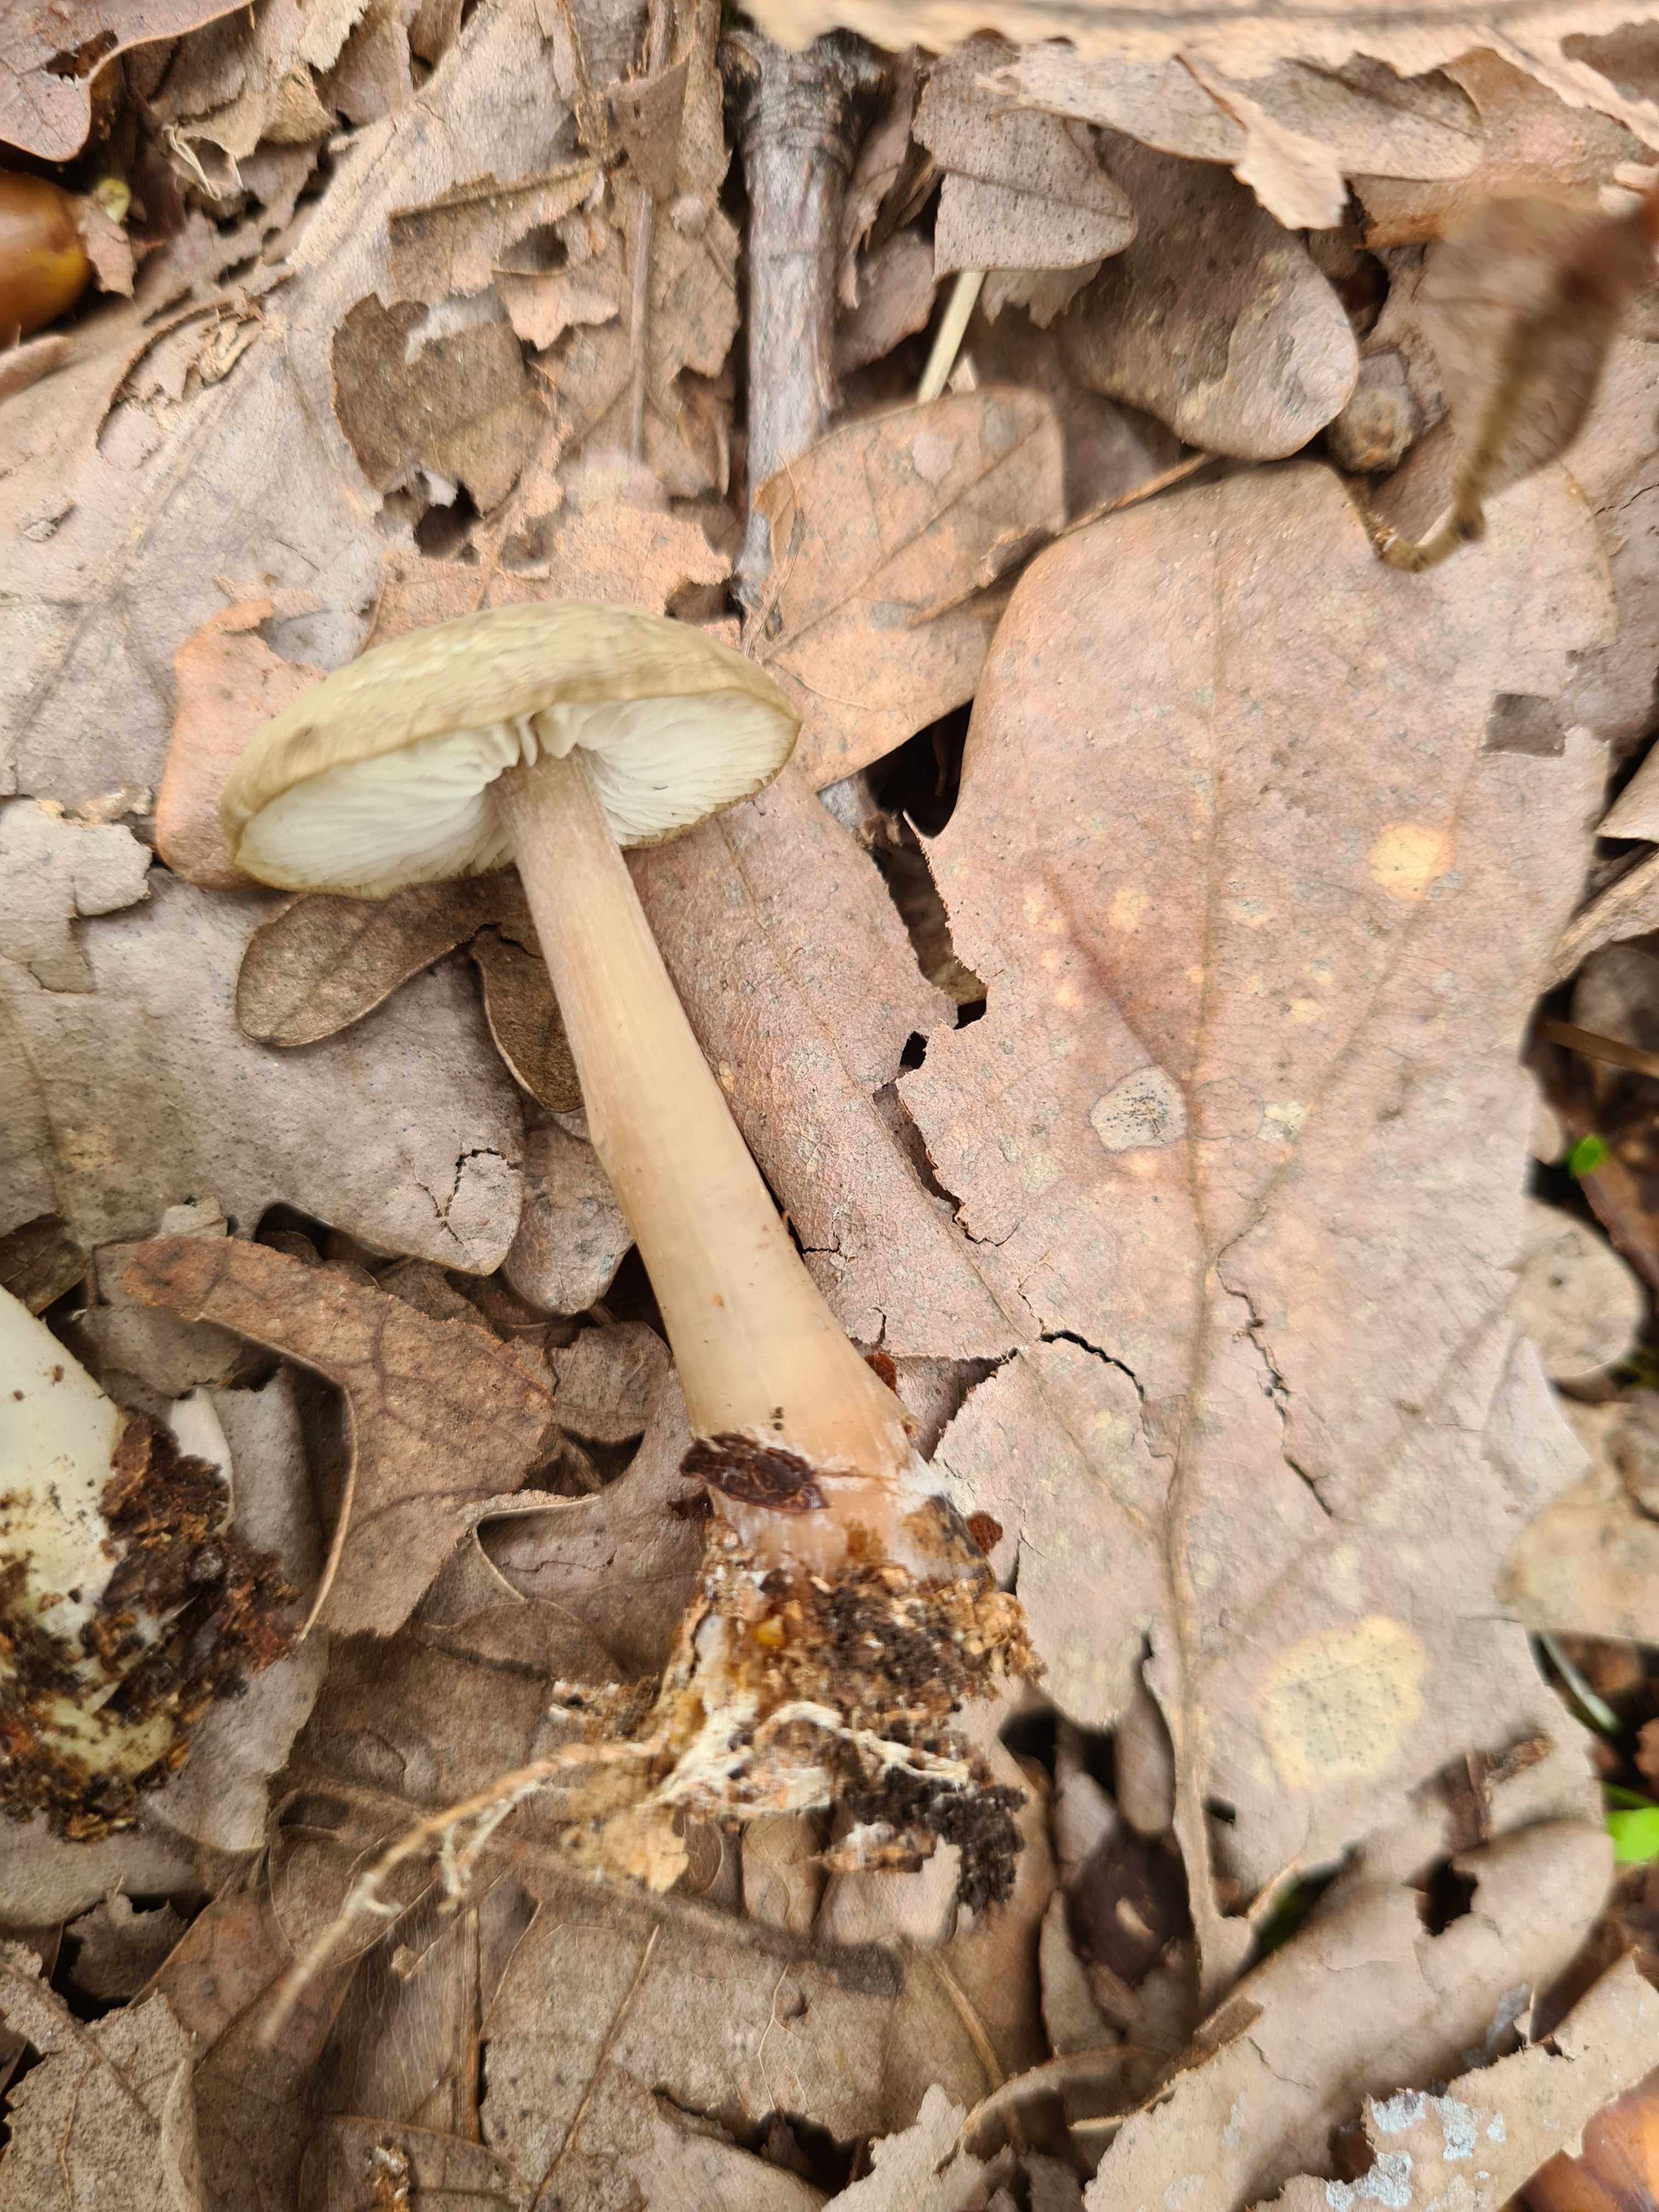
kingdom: Fungi
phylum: Basidiomycota
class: Agaricomycetes
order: Agaricales
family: Omphalotaceae
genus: Rhodocollybia
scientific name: Rhodocollybia asema
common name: horngrå fladhat
